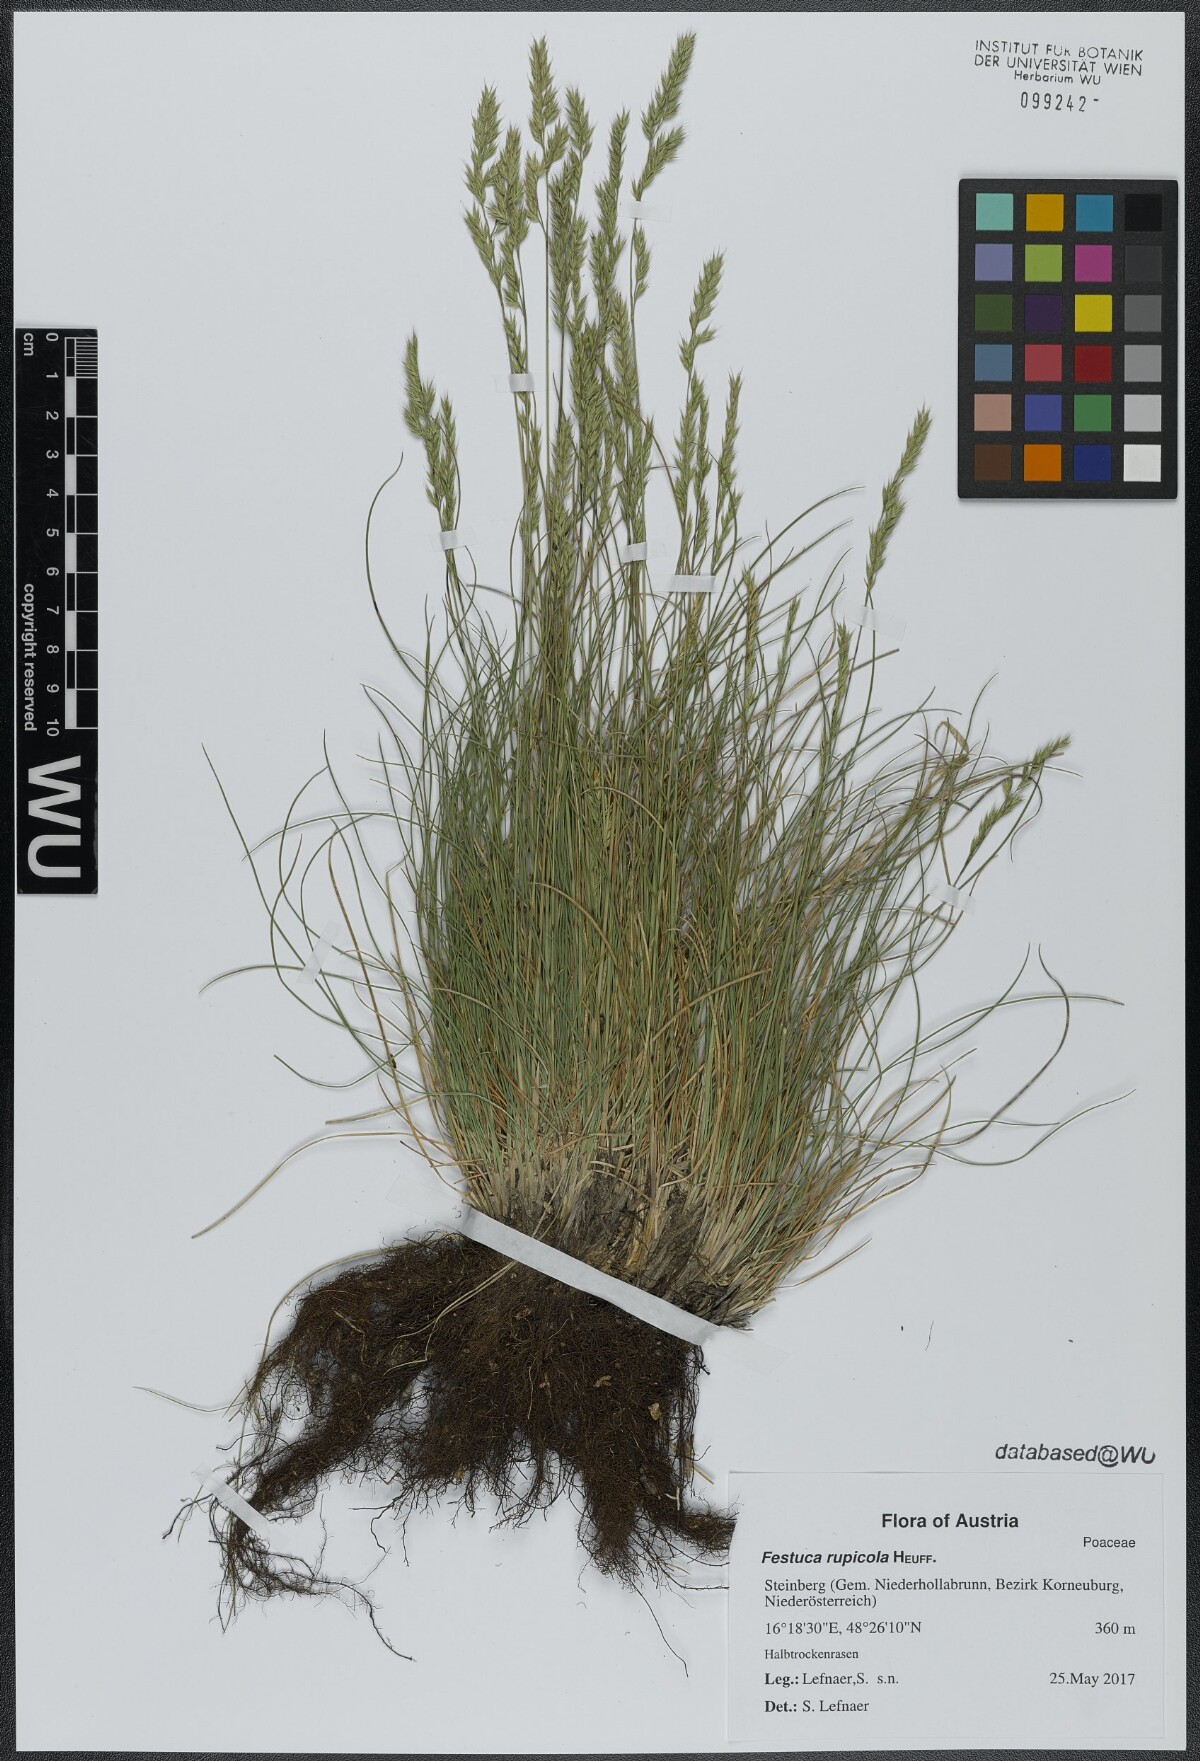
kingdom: Plantae
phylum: Tracheophyta
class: Liliopsida
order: Poales
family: Poaceae
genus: Festuca
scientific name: Festuca rupicola
